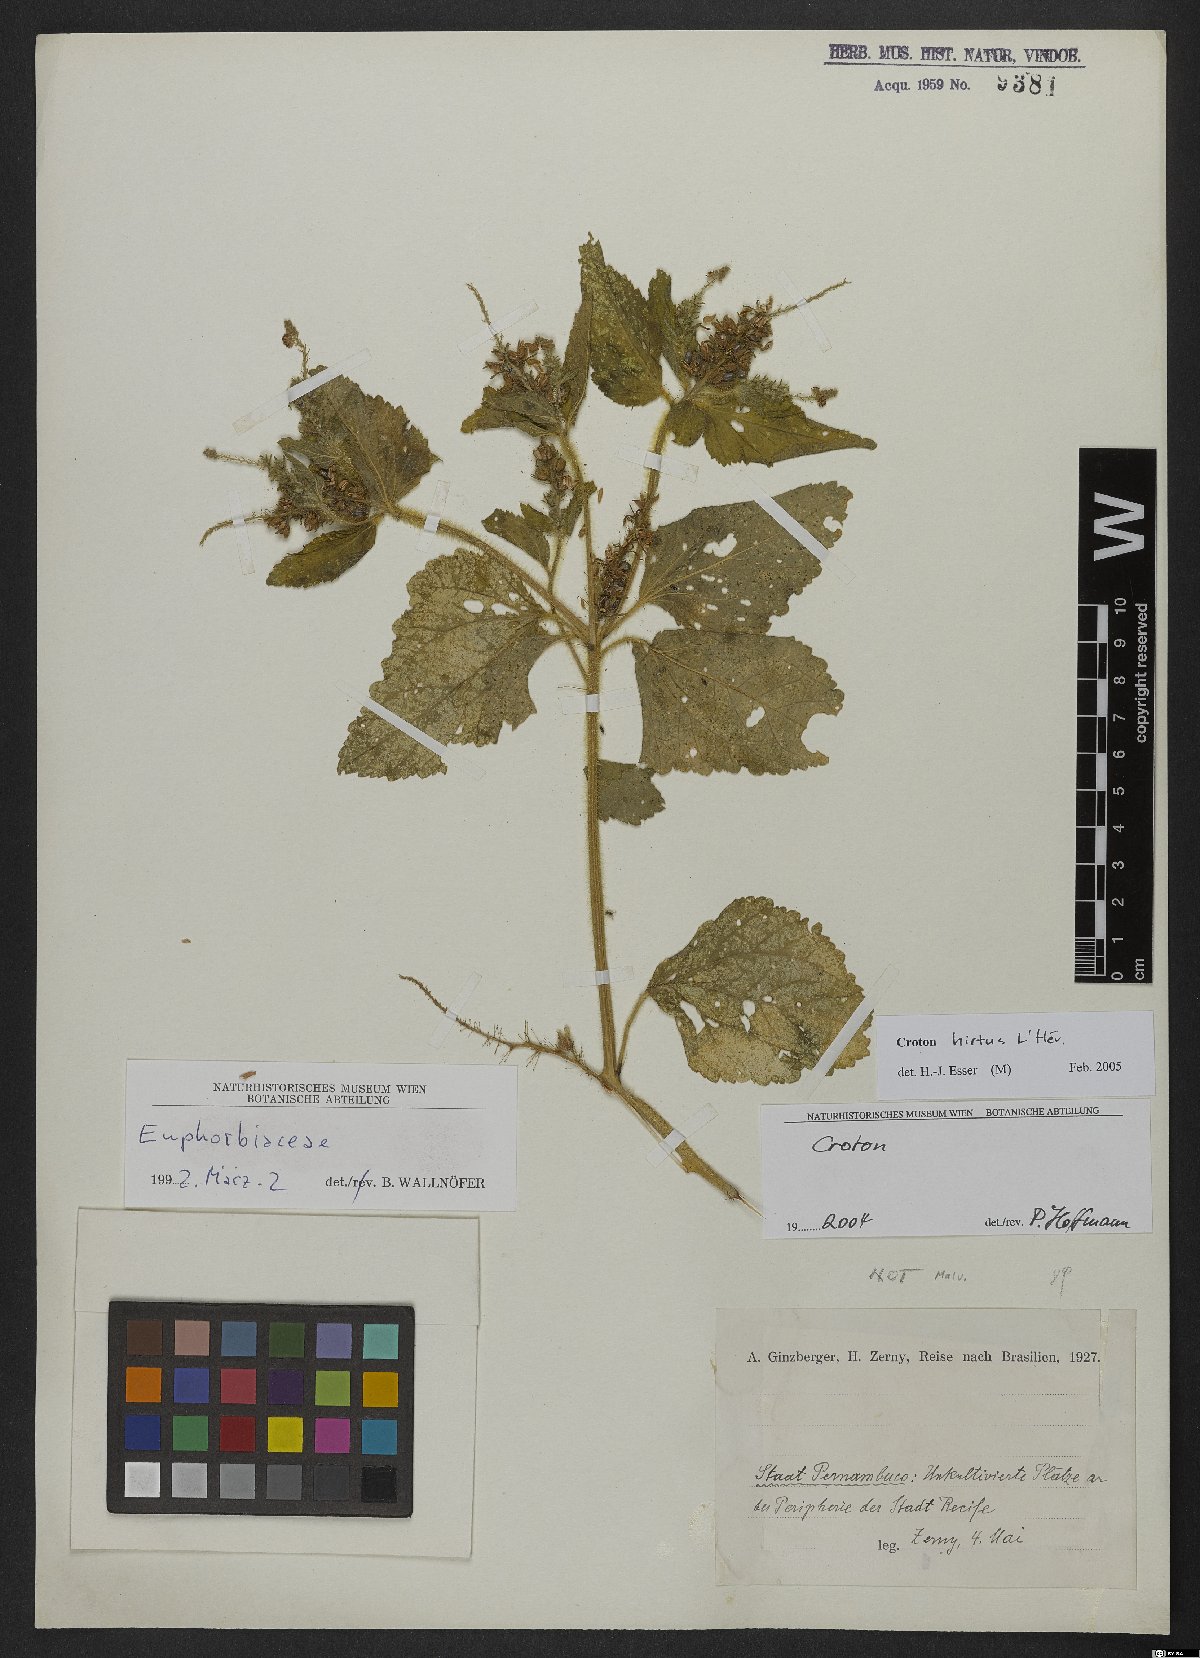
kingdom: Plantae
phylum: Tracheophyta
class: Magnoliopsida
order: Malpighiales
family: Euphorbiaceae
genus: Croton
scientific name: Croton hirtus
